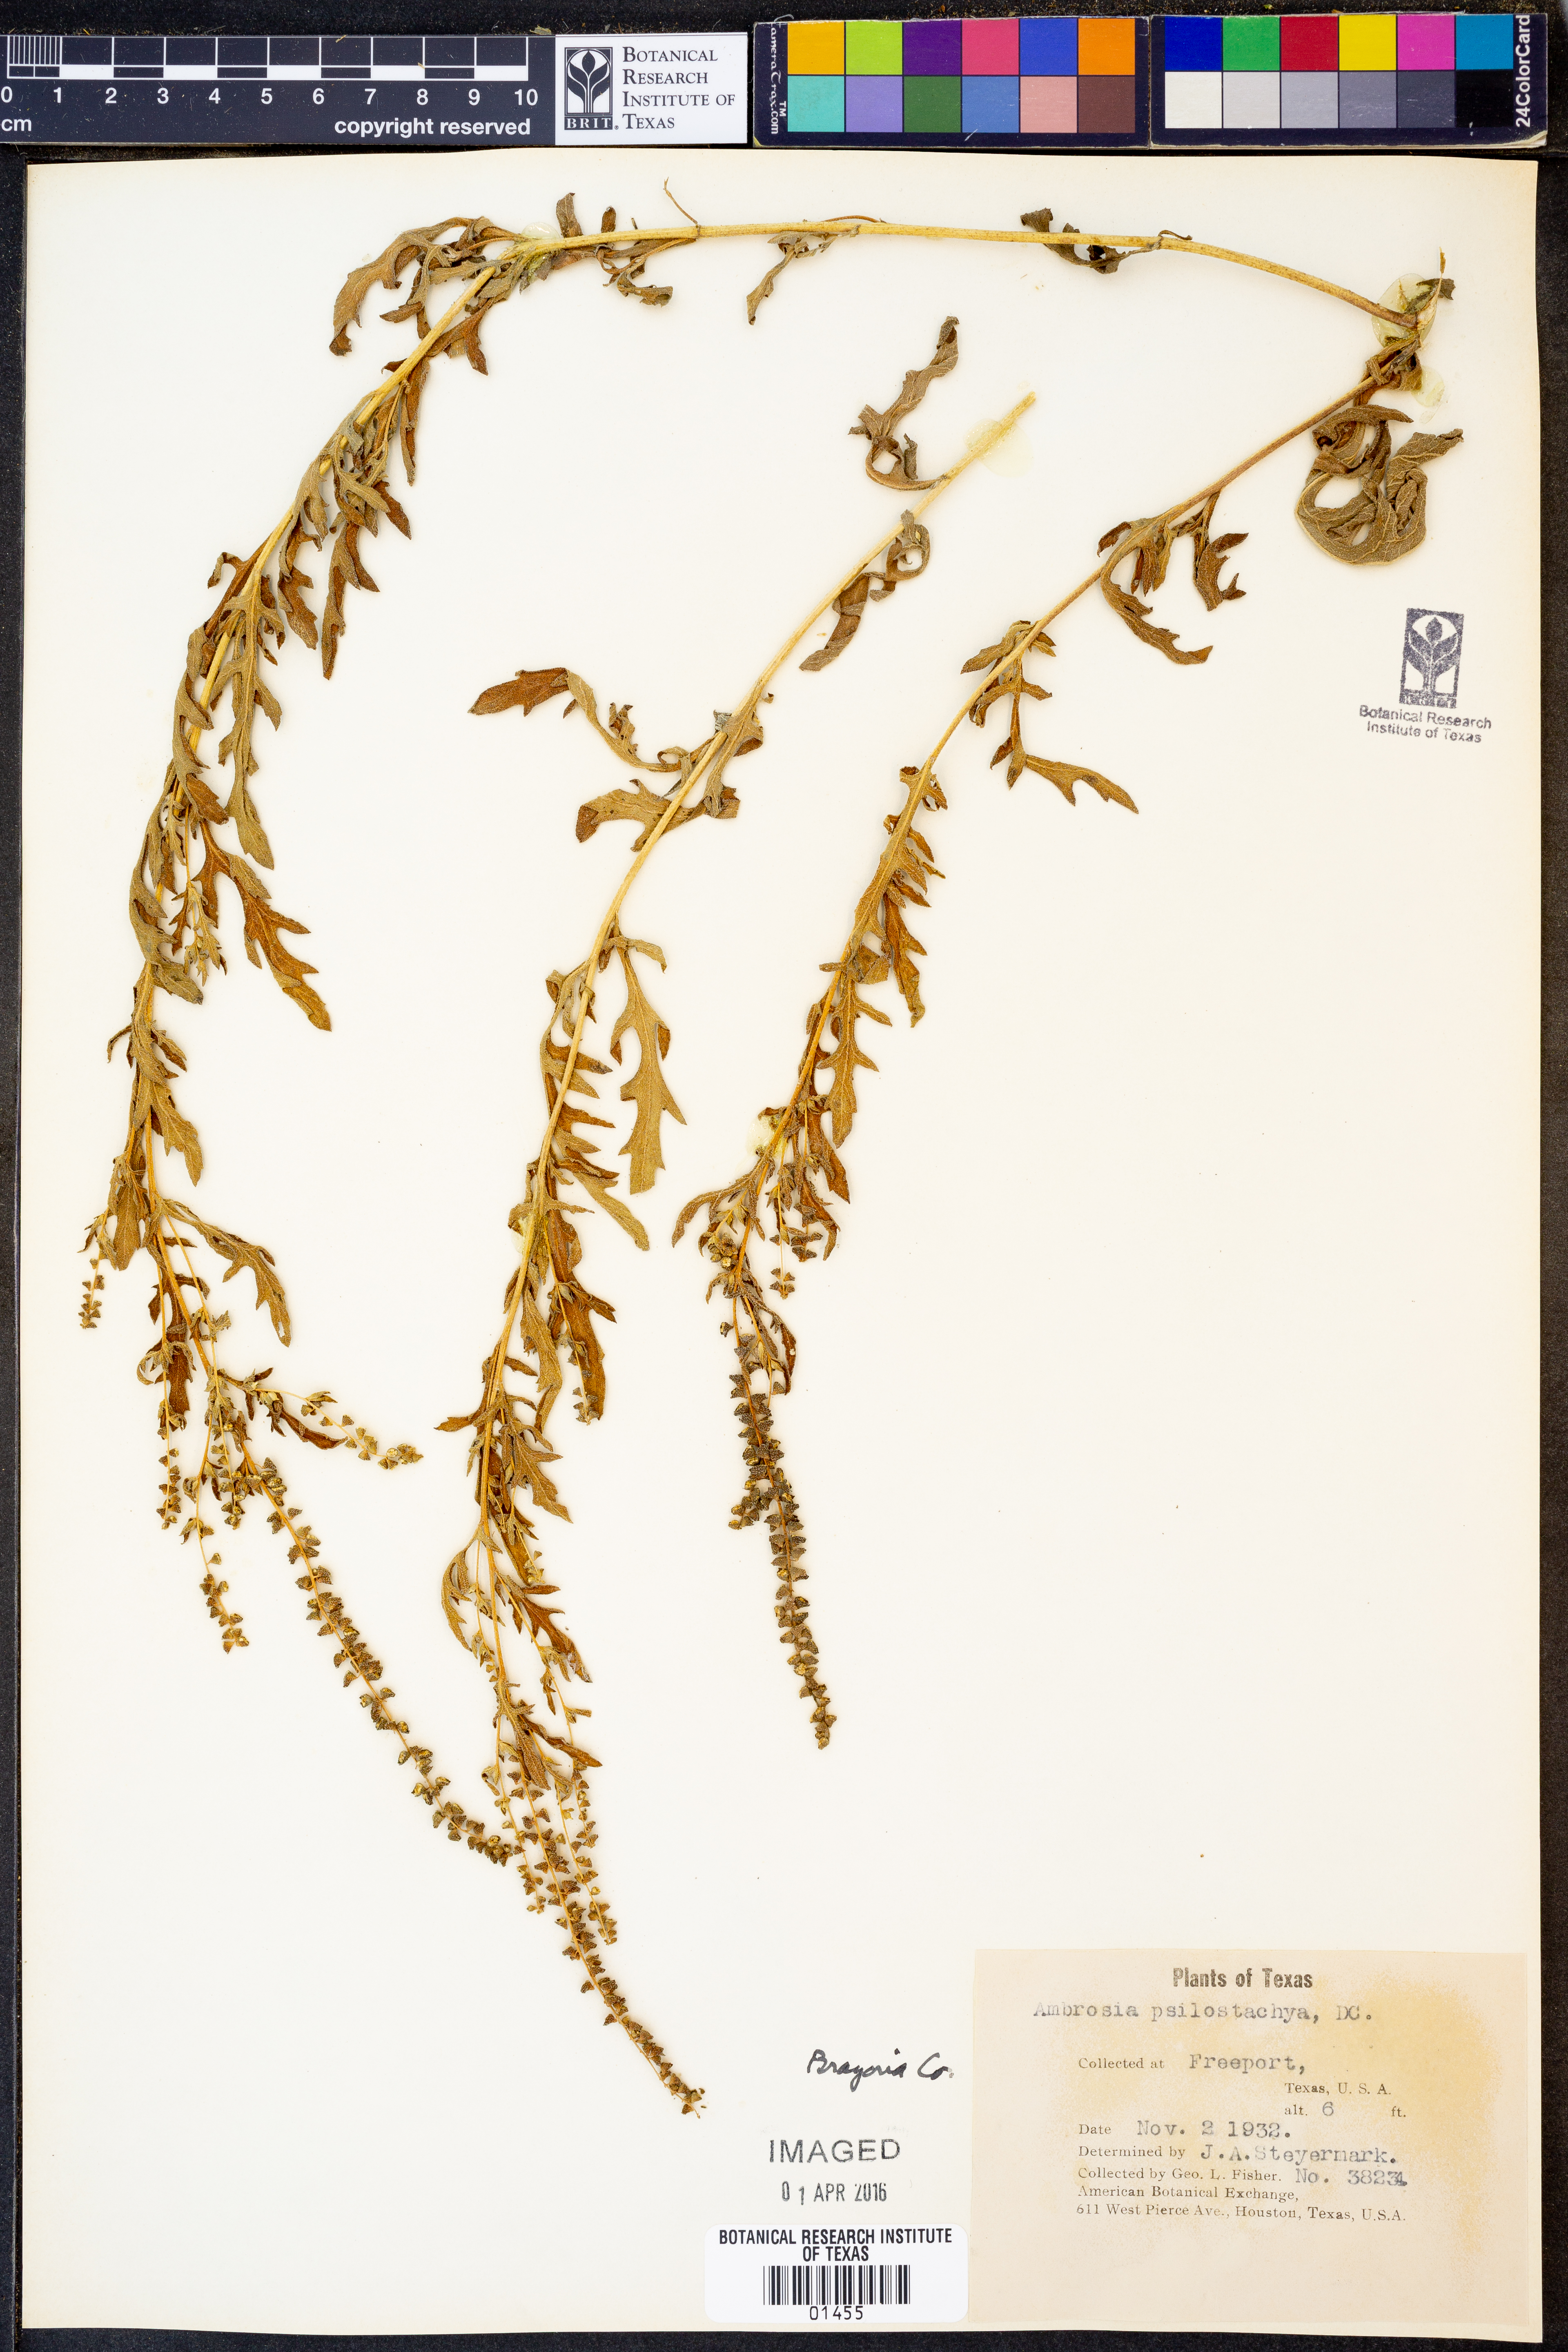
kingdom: Plantae
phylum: Tracheophyta
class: Magnoliopsida
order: Asterales
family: Asteraceae
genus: Ambrosia
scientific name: Ambrosia psilostachya
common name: Perennial ragweed
